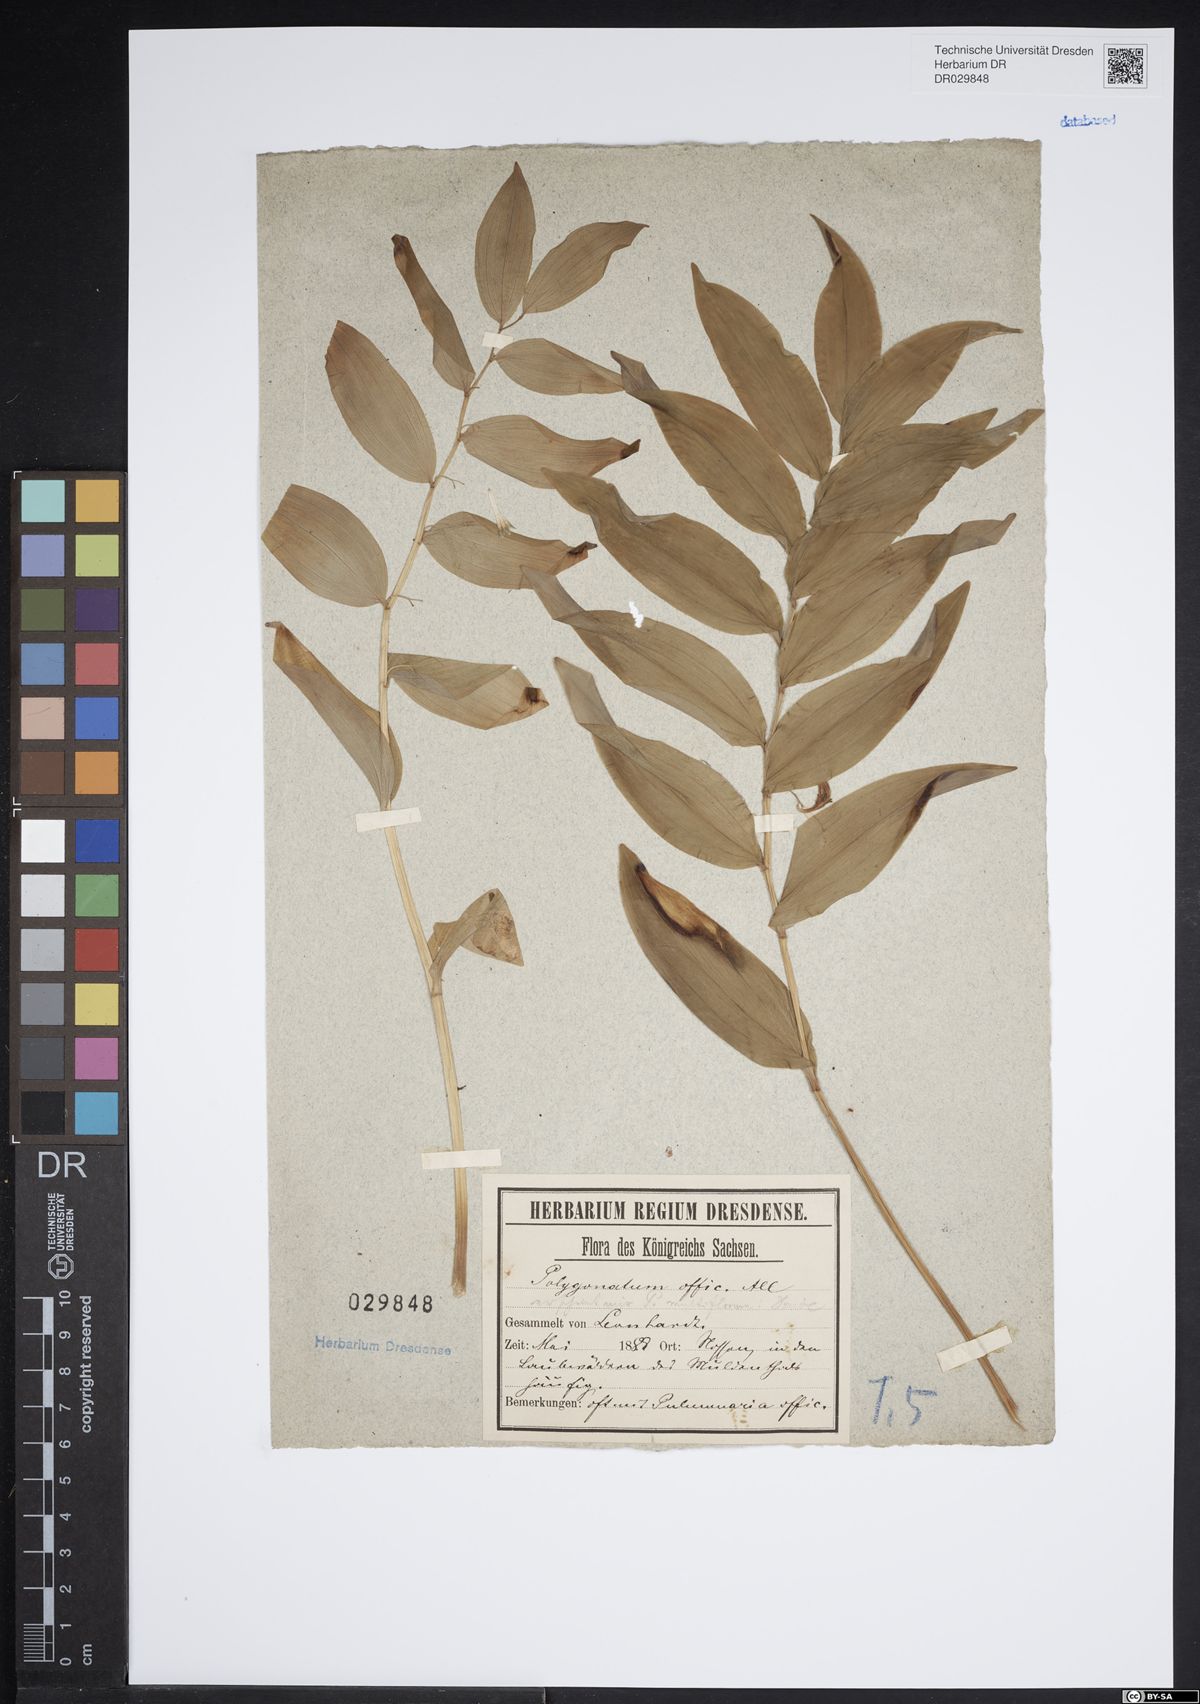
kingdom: Plantae
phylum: Tracheophyta
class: Liliopsida
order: Asparagales
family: Asparagaceae
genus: Polygonatum
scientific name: Polygonatum odoratum
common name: Angular solomon's-seal
